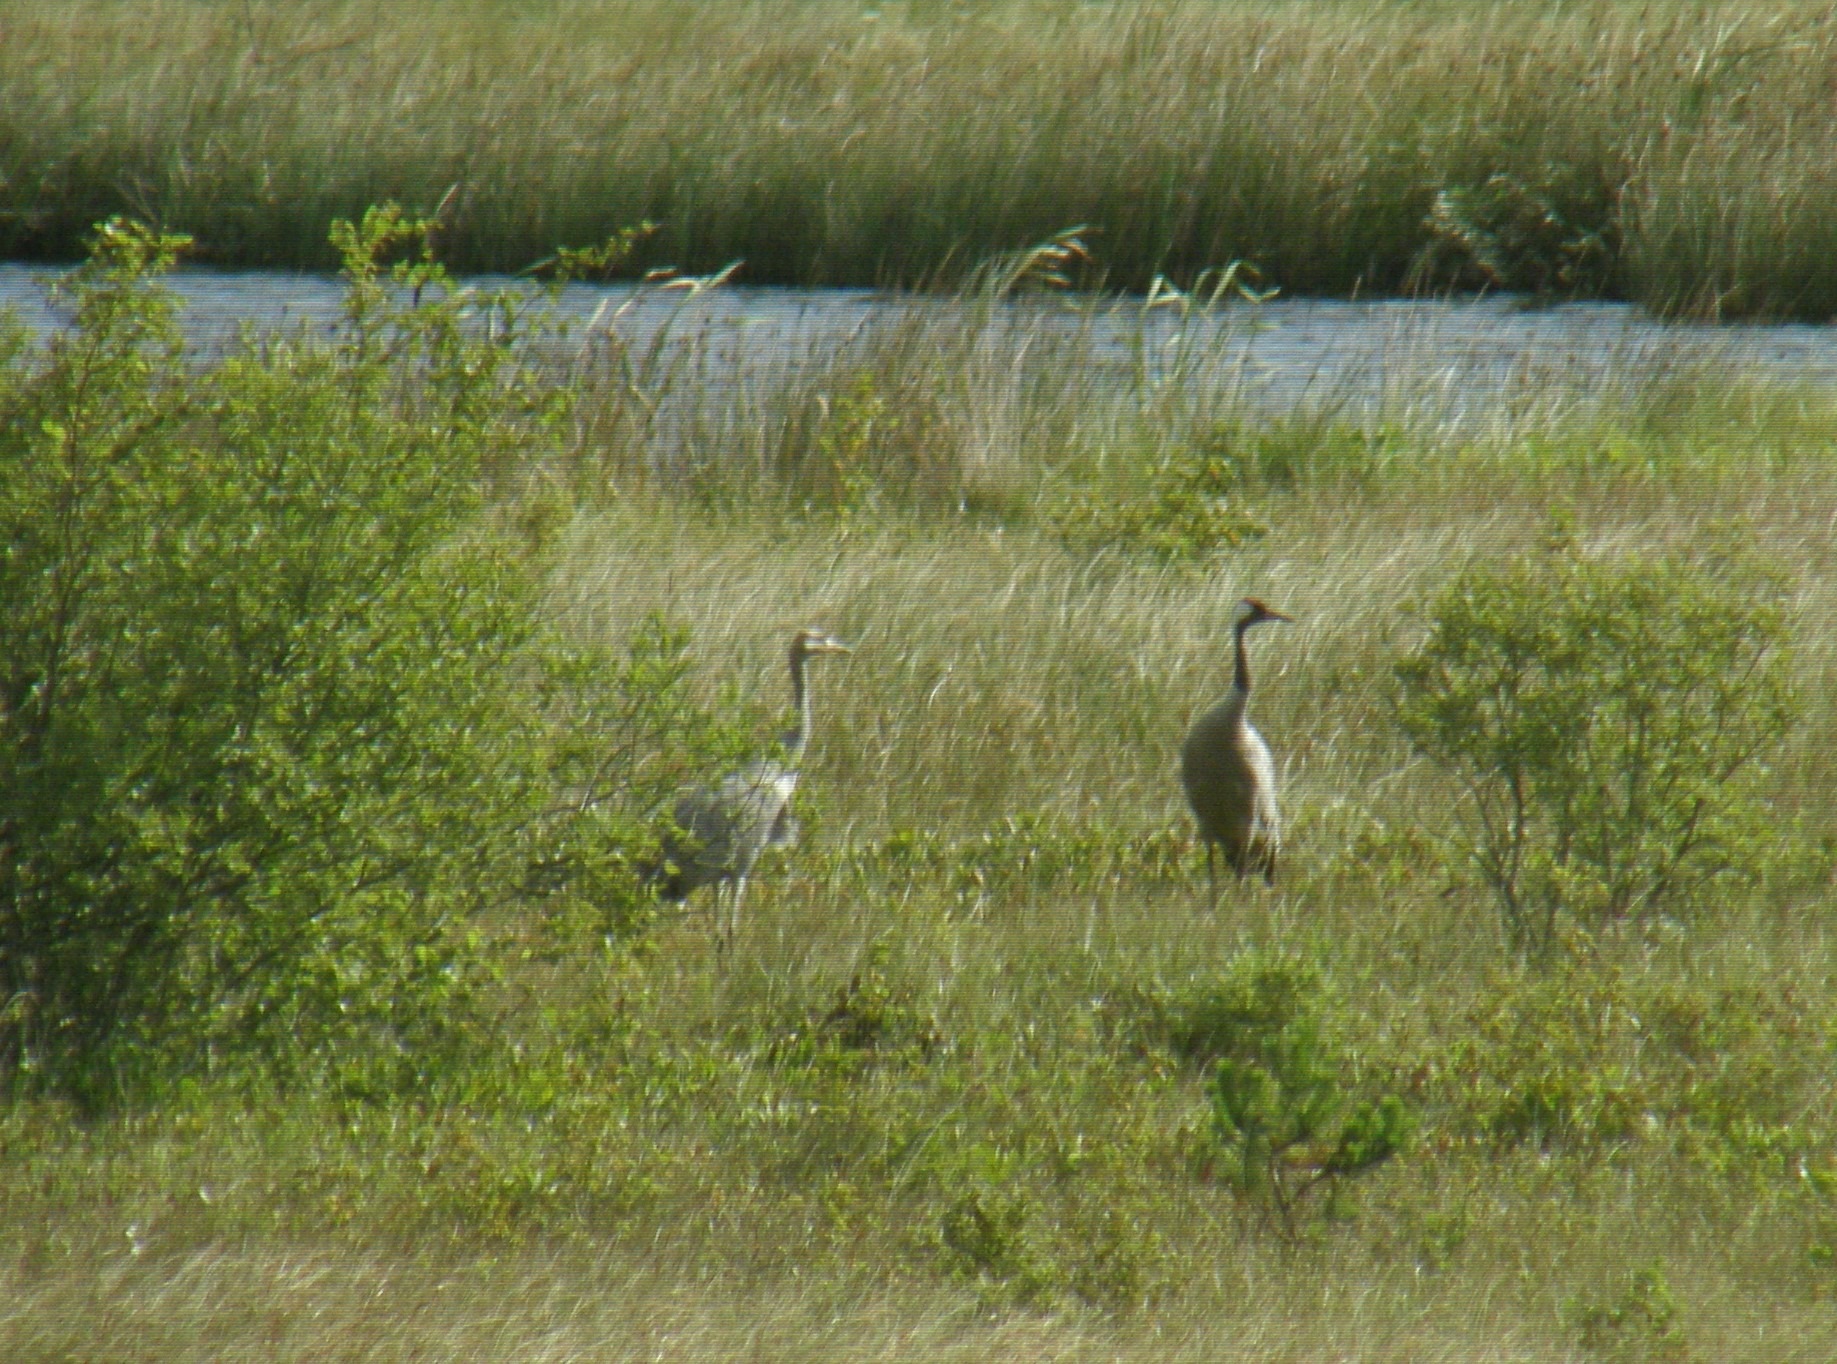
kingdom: Animalia
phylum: Chordata
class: Aves
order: Gruiformes
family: Gruidae
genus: Grus
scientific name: Grus grus
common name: Trane
